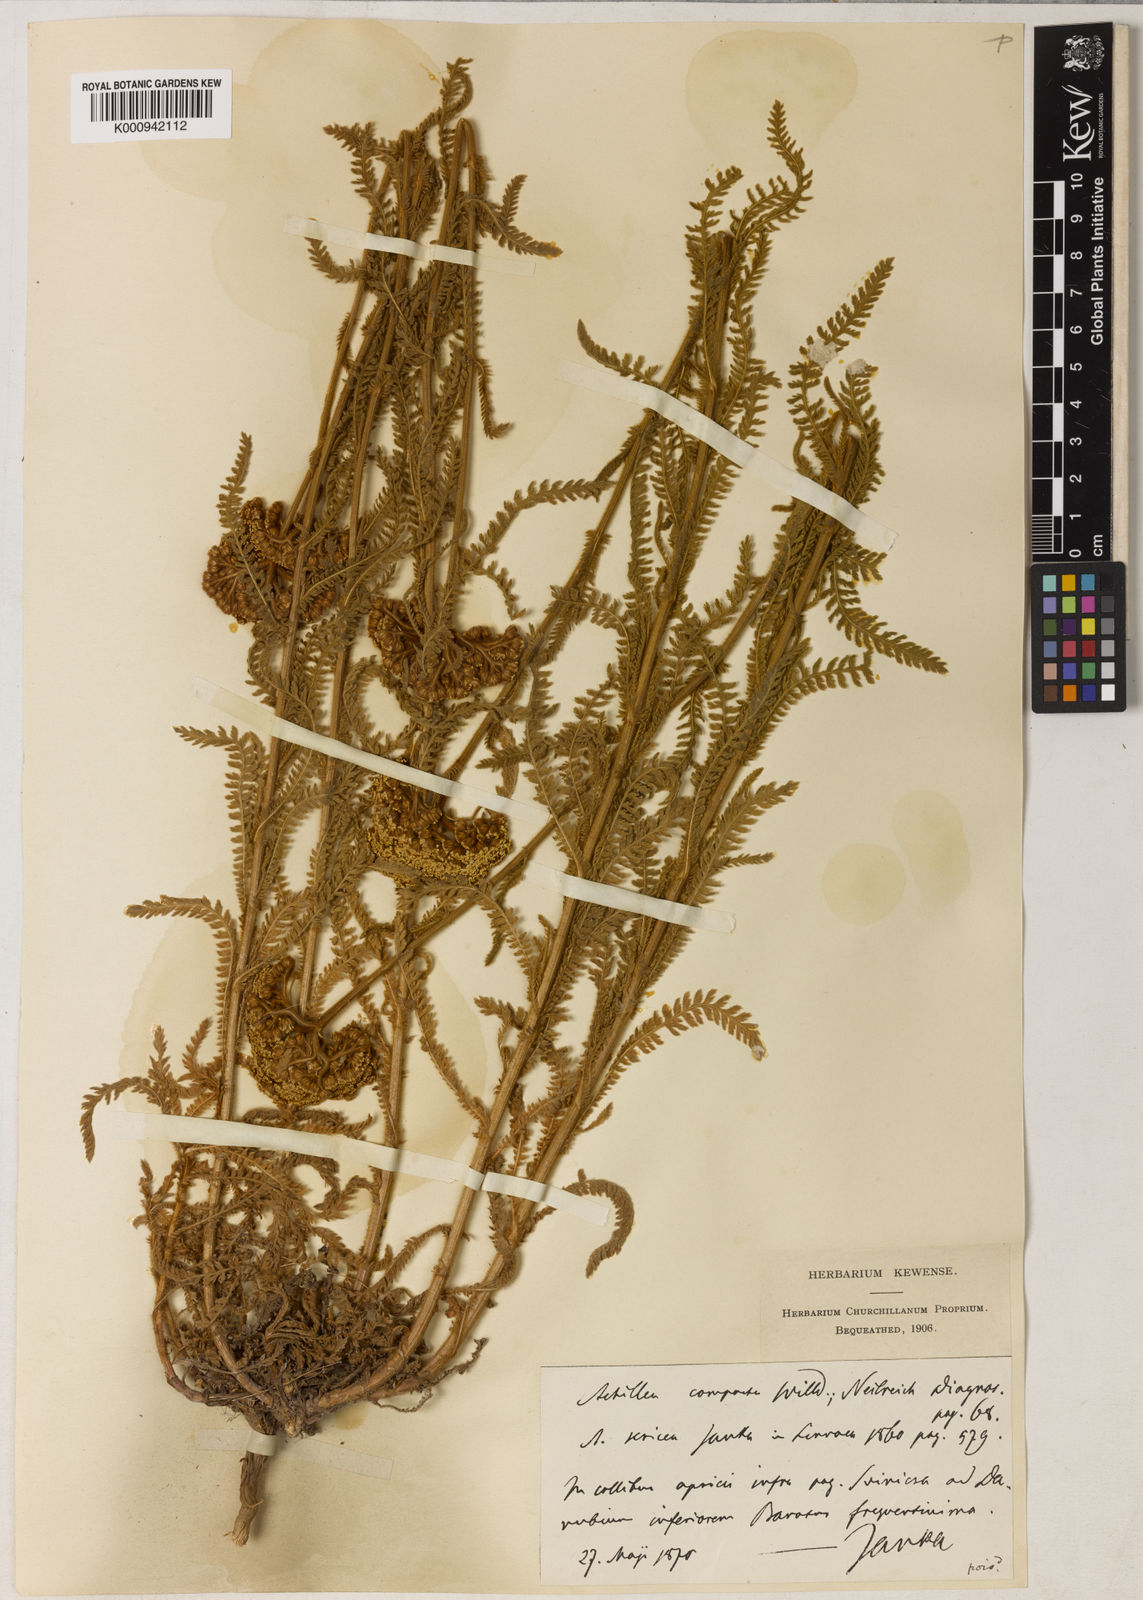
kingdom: Plantae
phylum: Tracheophyta
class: Magnoliopsida
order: Asterales
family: Asteraceae
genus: Achillea
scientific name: Achillea coarctata
